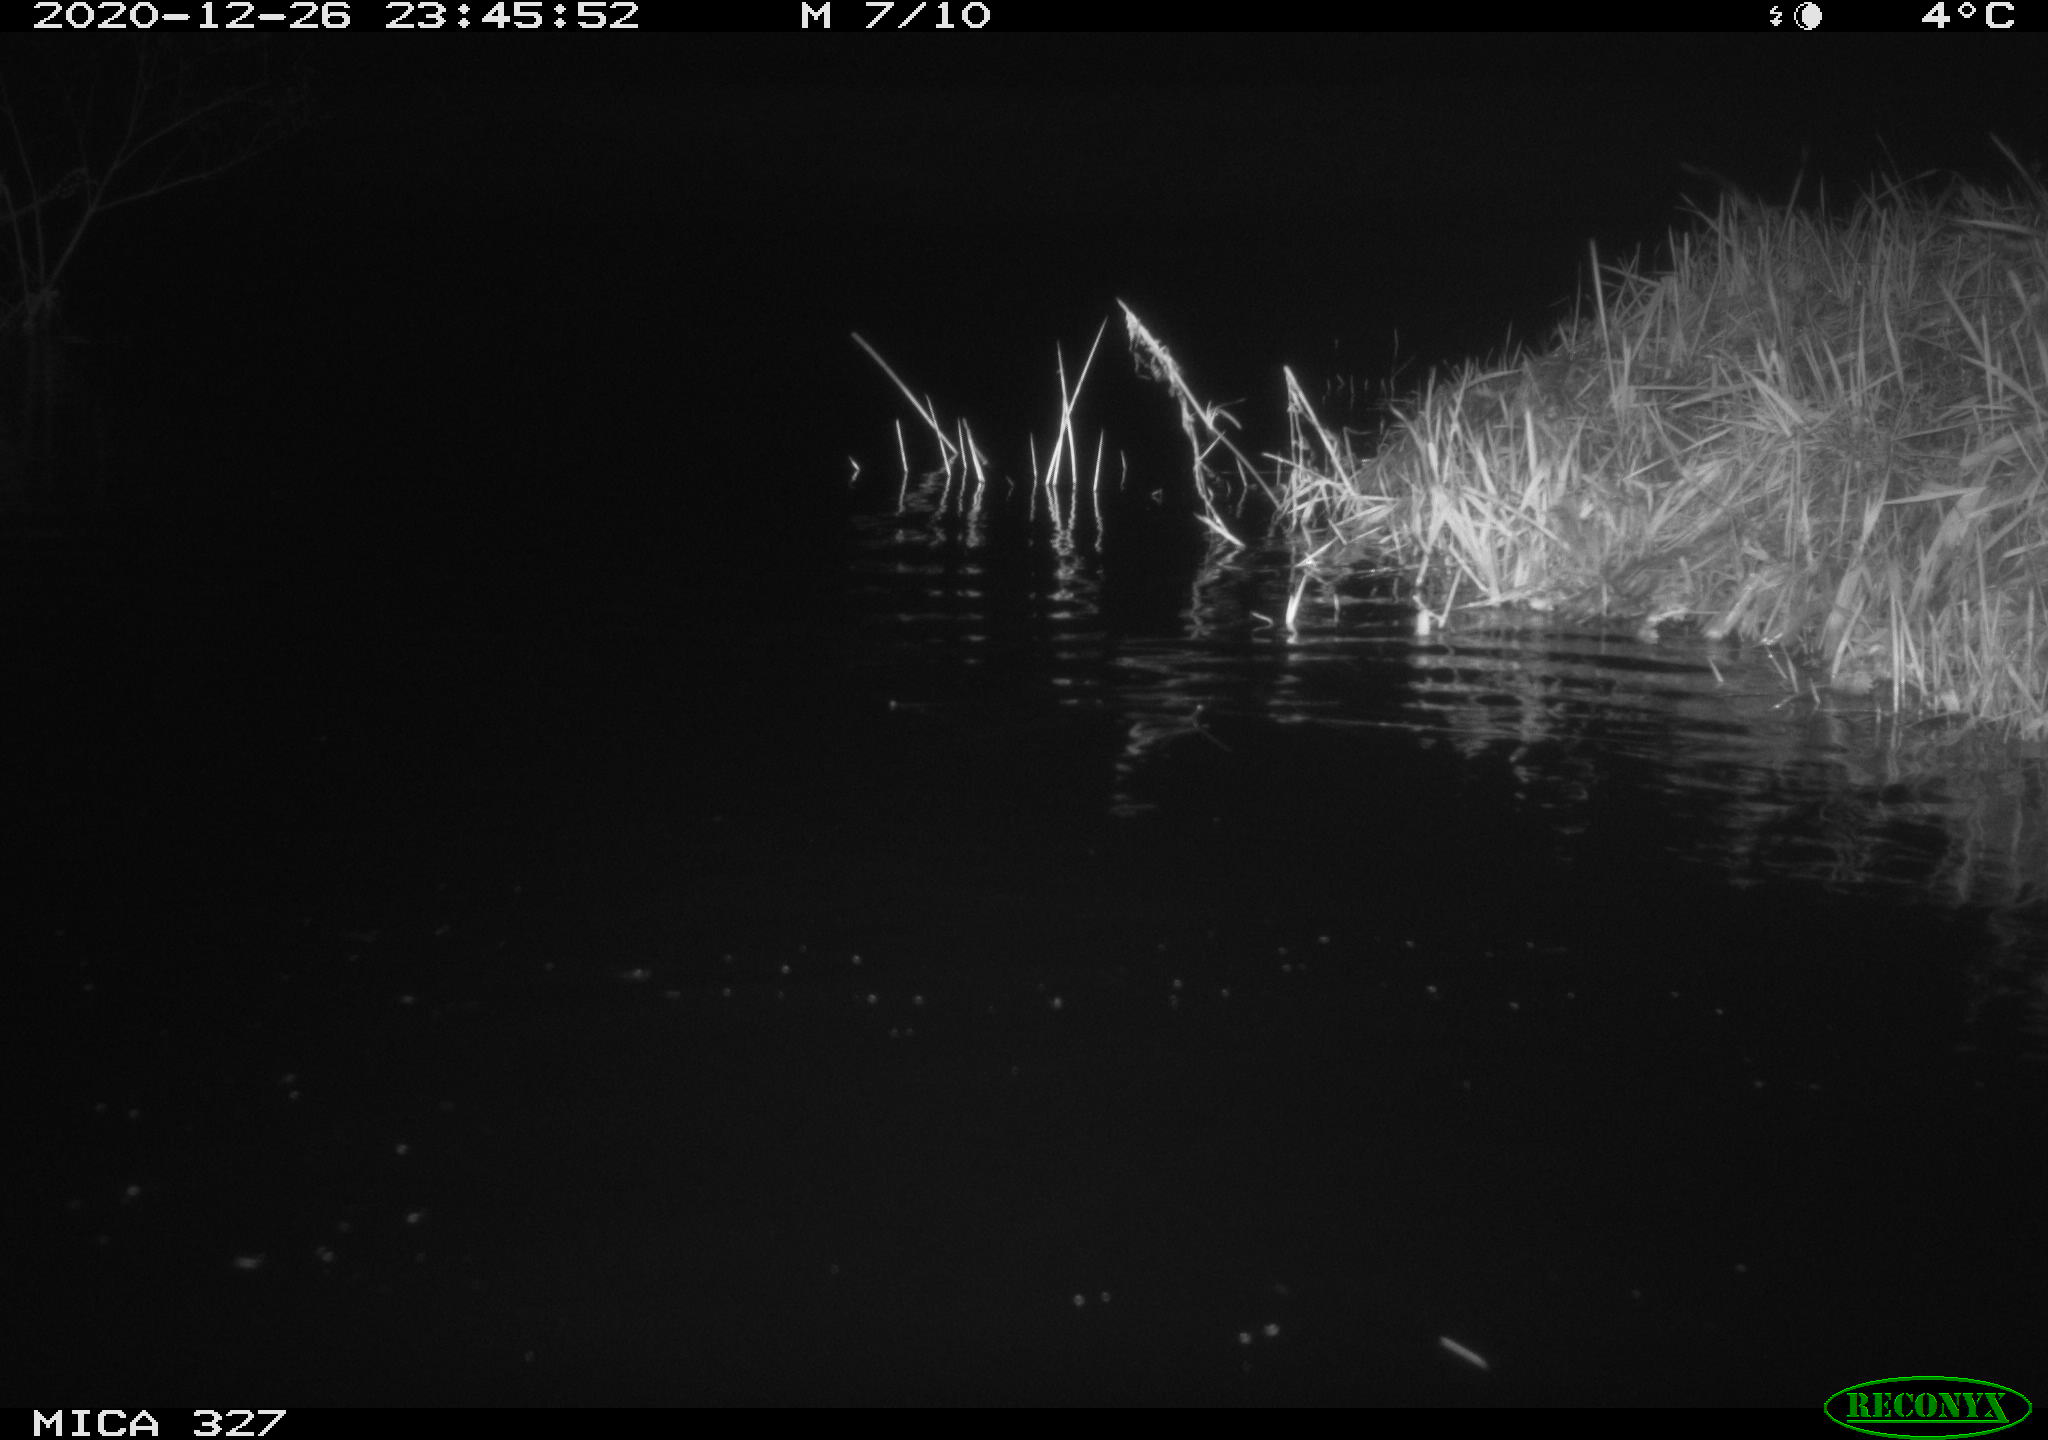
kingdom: Animalia
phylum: Chordata
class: Mammalia
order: Rodentia
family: Myocastoridae
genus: Myocastor
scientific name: Myocastor coypus
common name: Coypu
